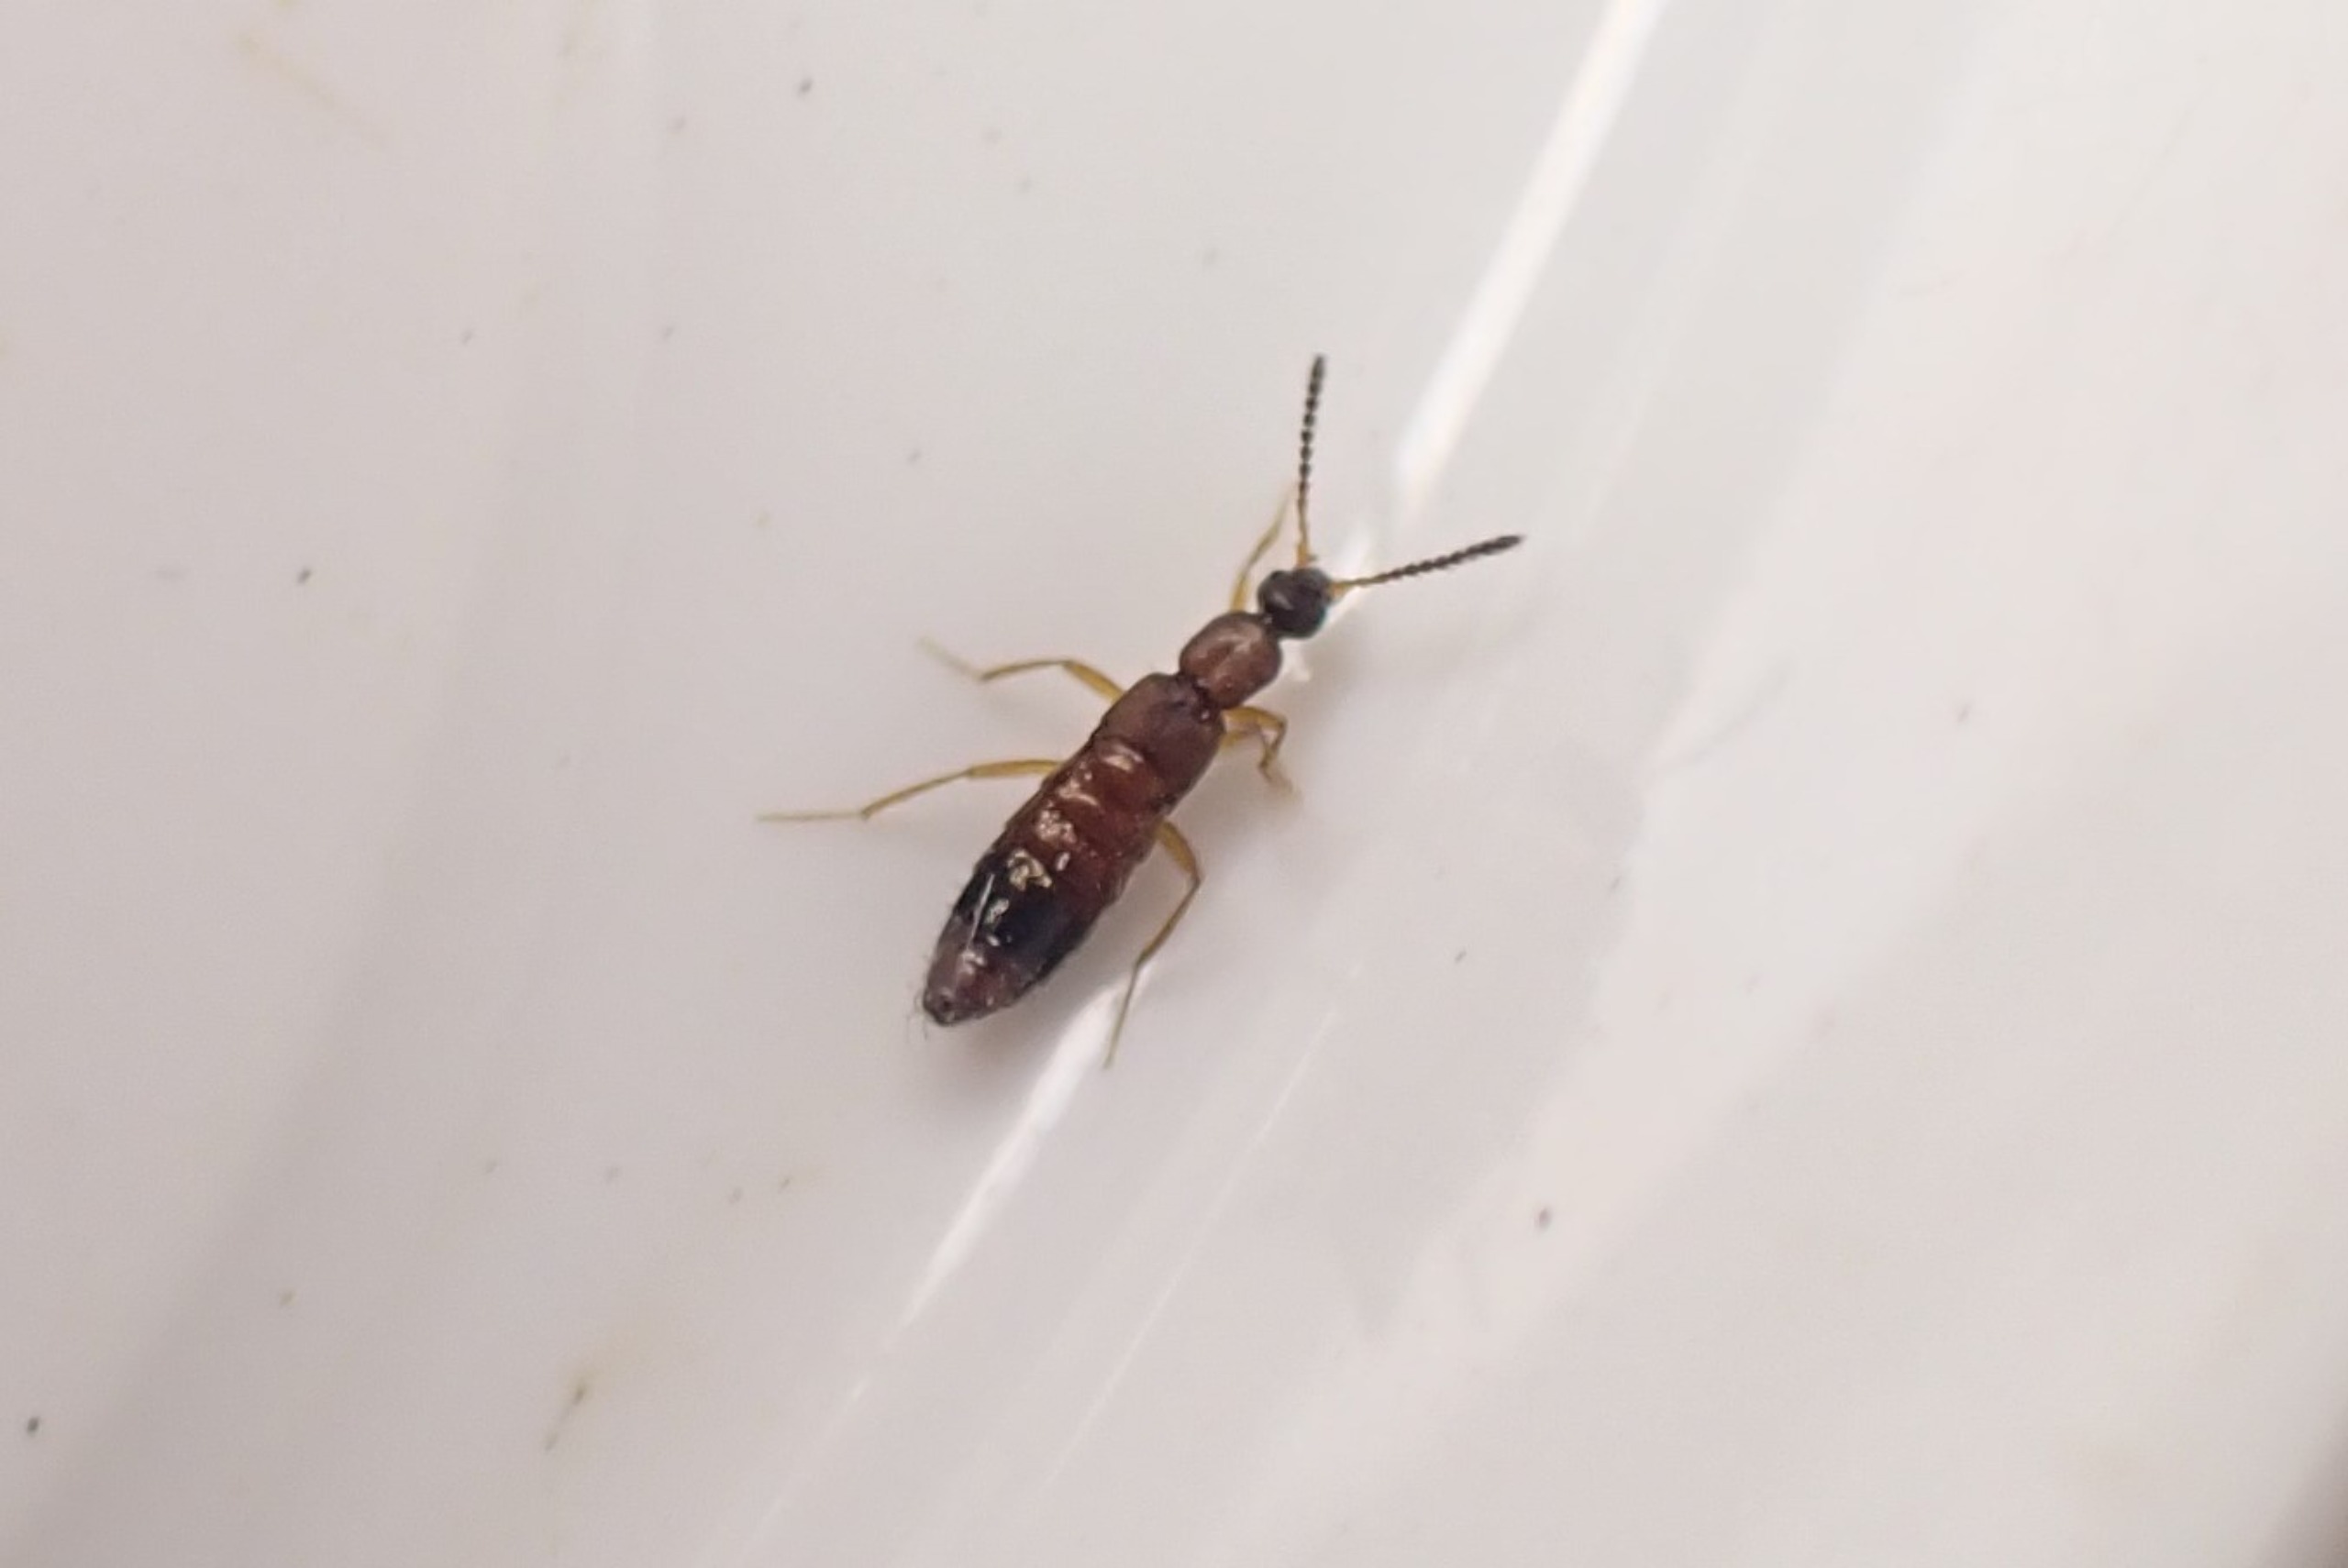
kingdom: Animalia
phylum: Arthropoda
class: Insecta
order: Coleoptera
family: Staphylinidae
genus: Drusilla
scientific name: Drusilla canaliculata
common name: Myrerøver
